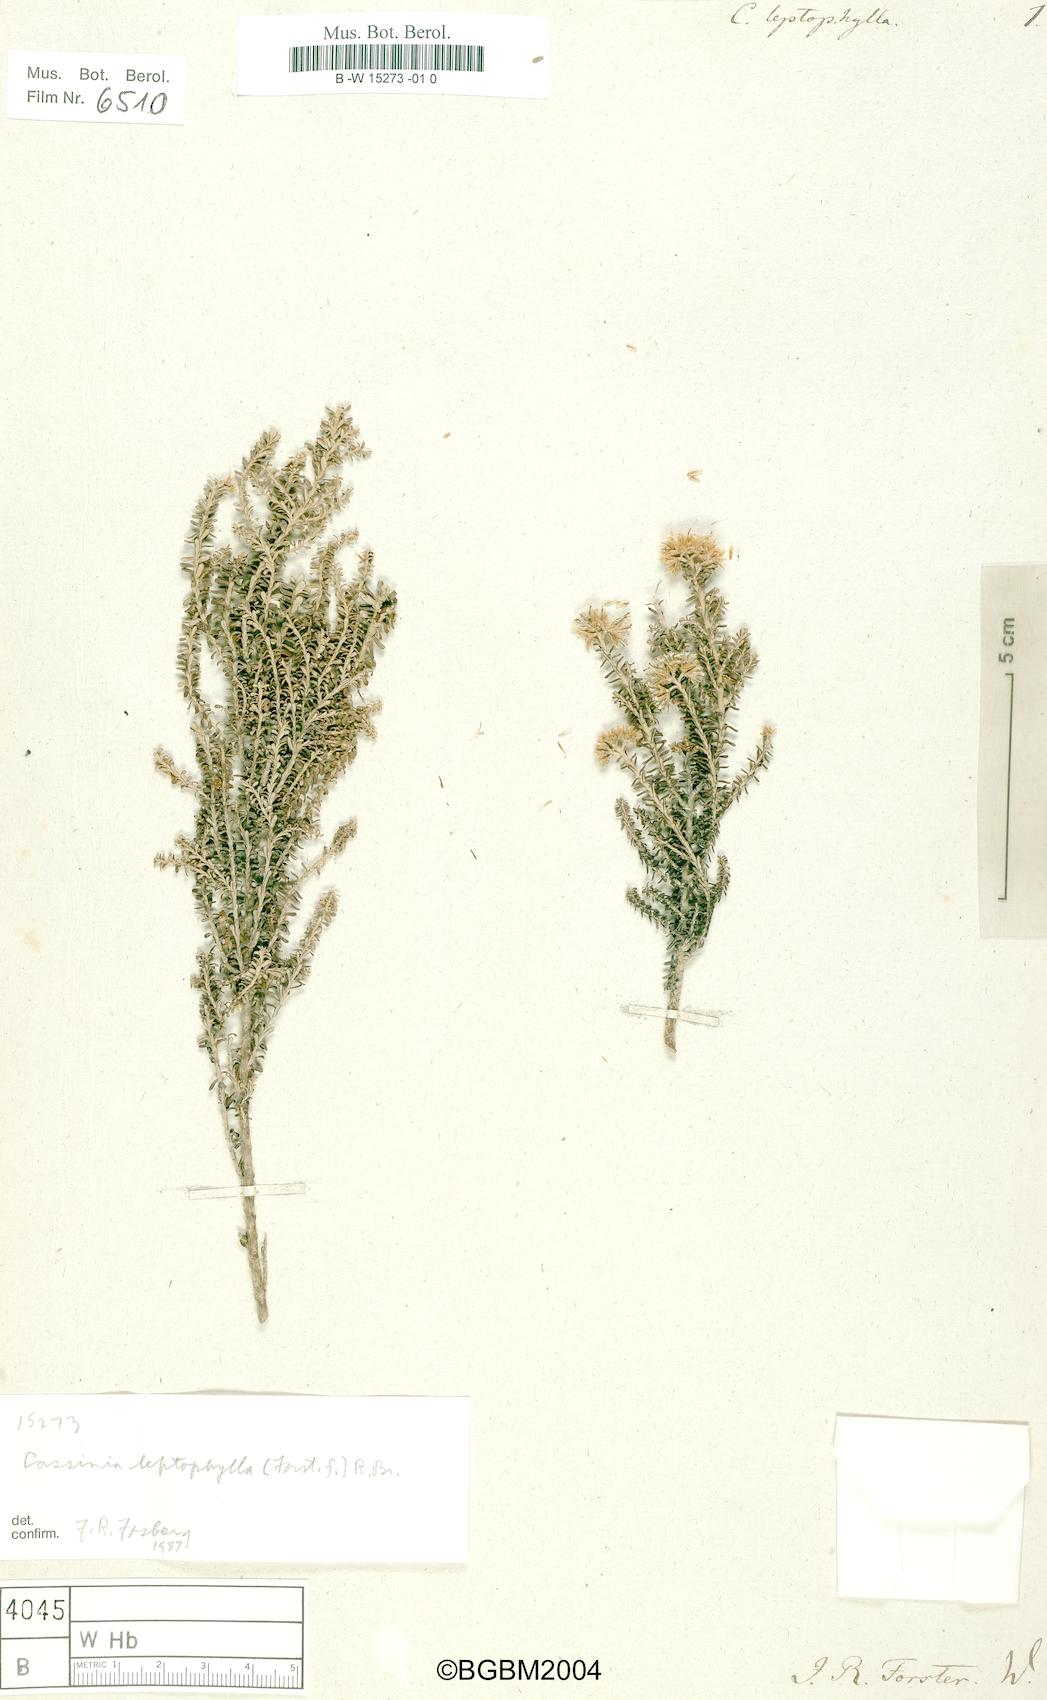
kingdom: Plantae
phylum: Tracheophyta
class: Magnoliopsida
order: Asterales
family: Asteraceae
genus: Ozothamnus
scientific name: Ozothamnus leptophyllus
